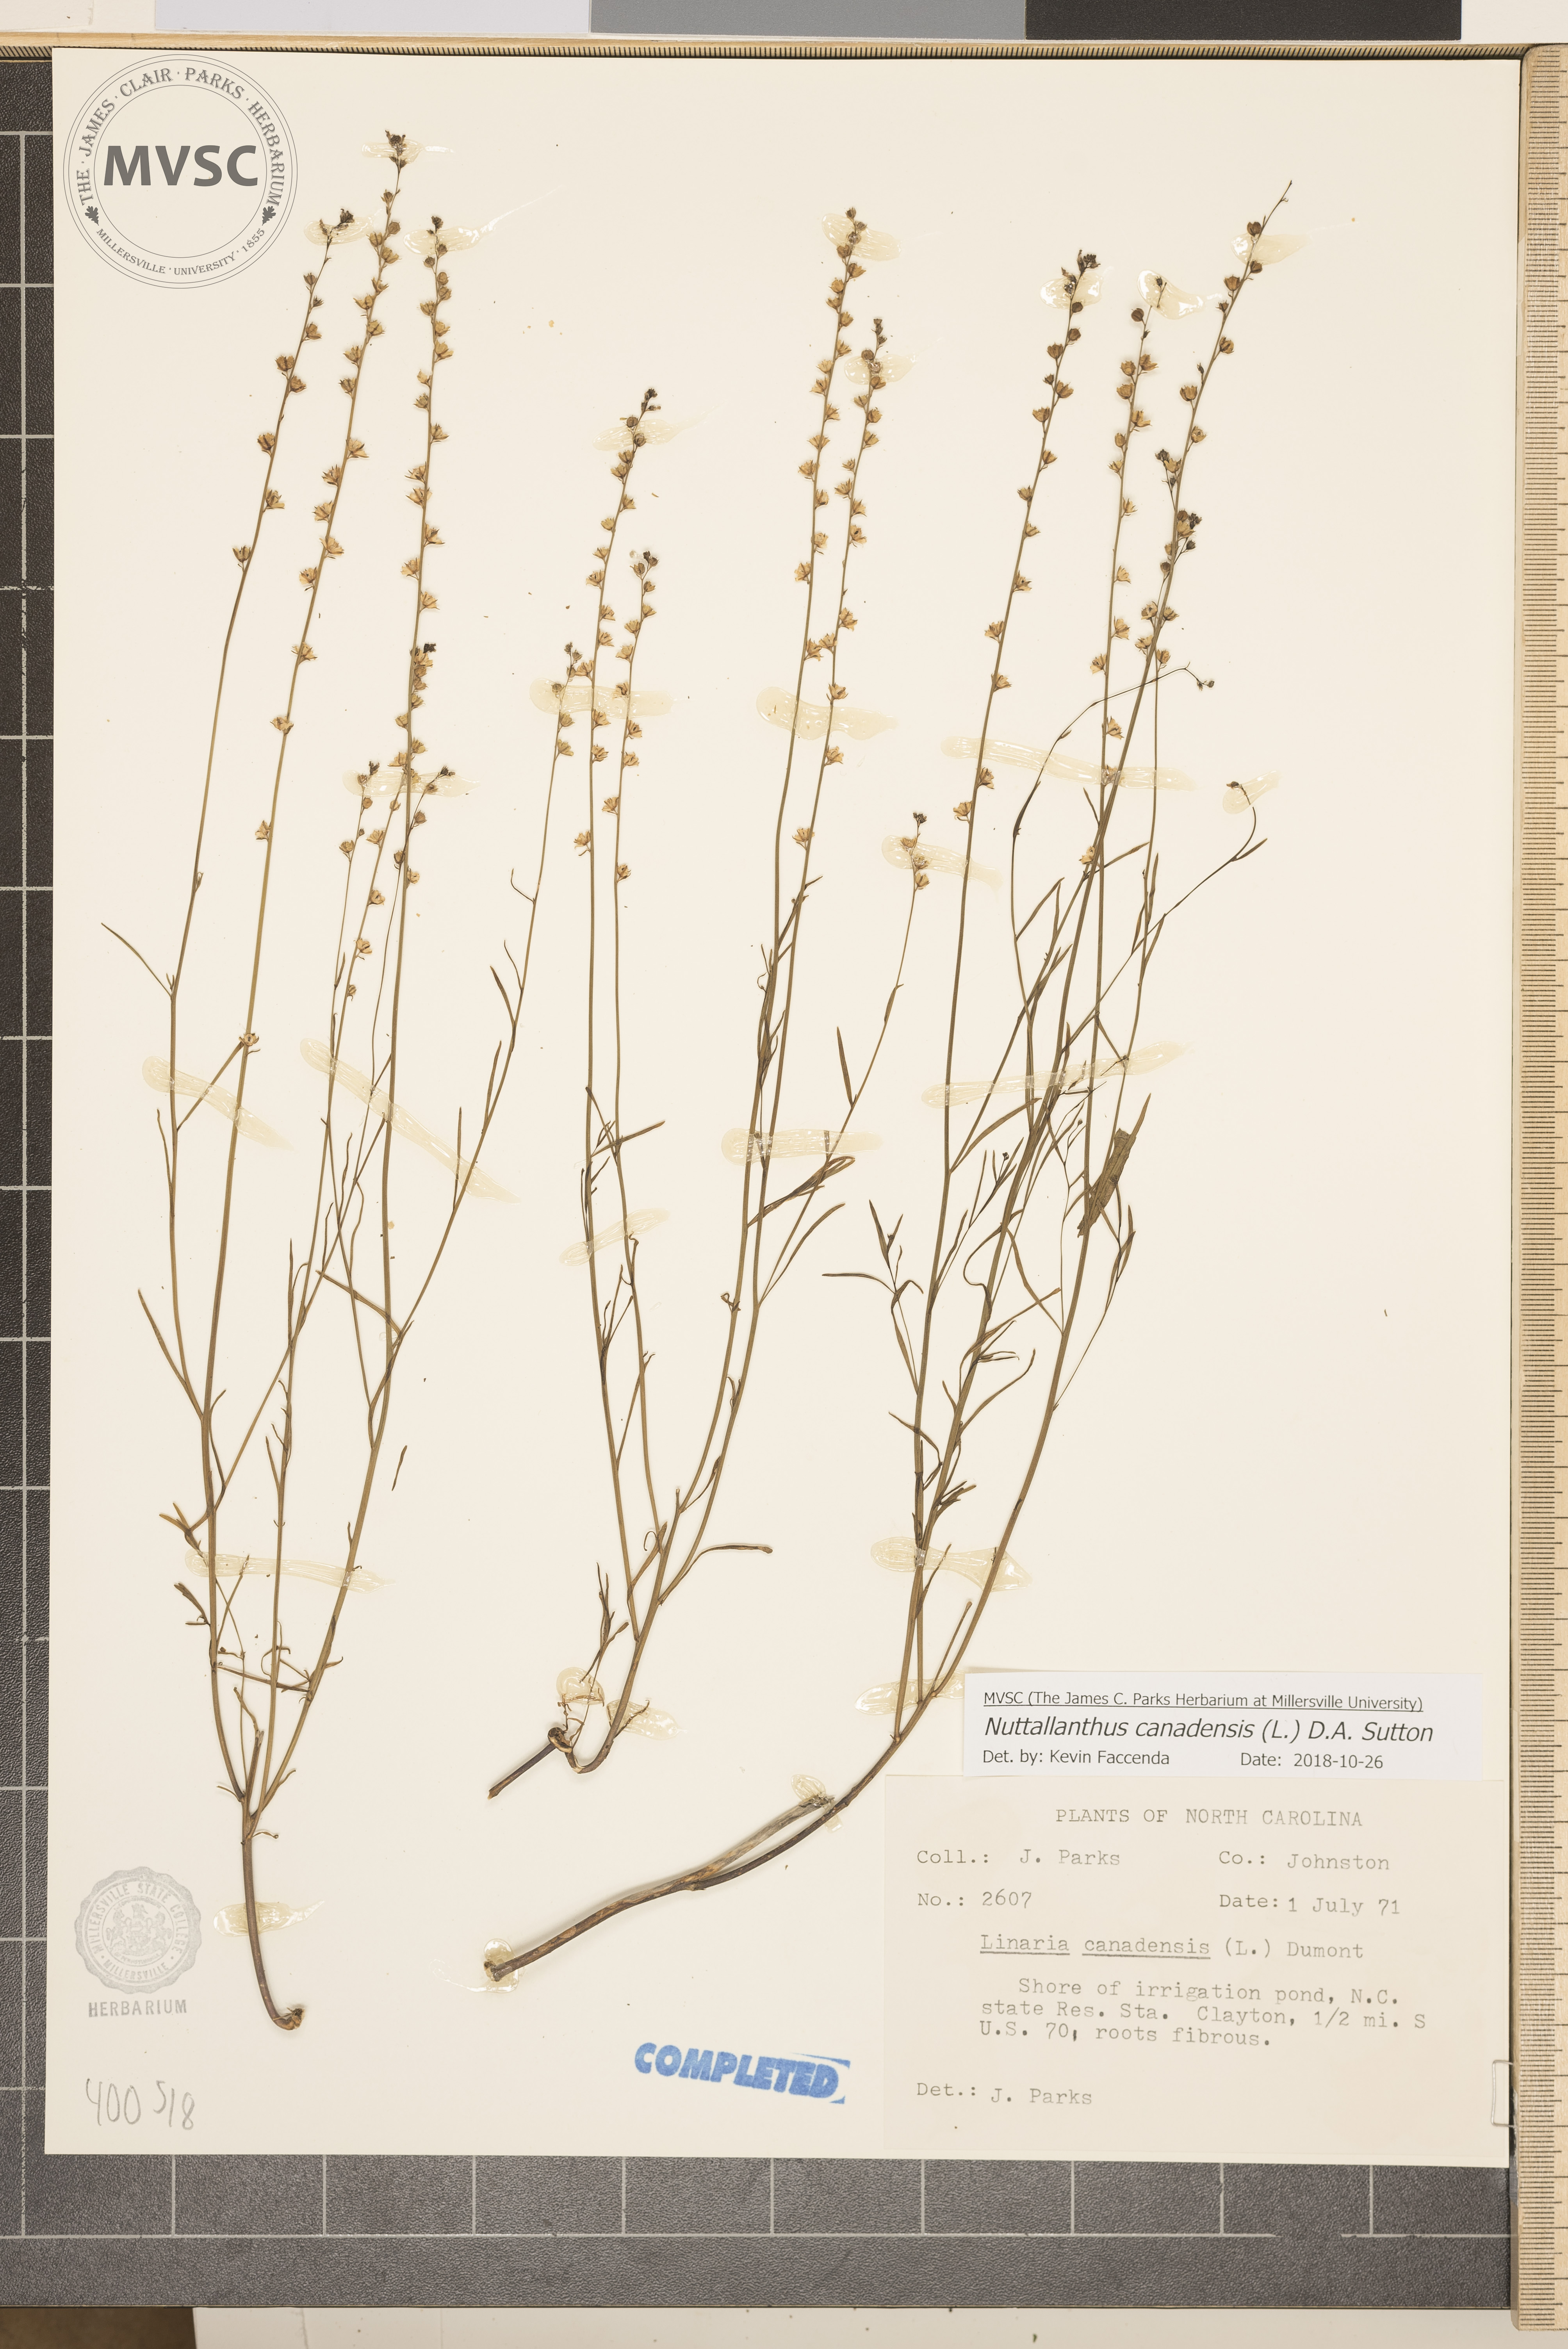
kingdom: Plantae
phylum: Tracheophyta
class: Magnoliopsida
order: Lamiales
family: Plantaginaceae
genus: Nuttallanthus
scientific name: Nuttallanthus canadensis
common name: Blue toadflax
